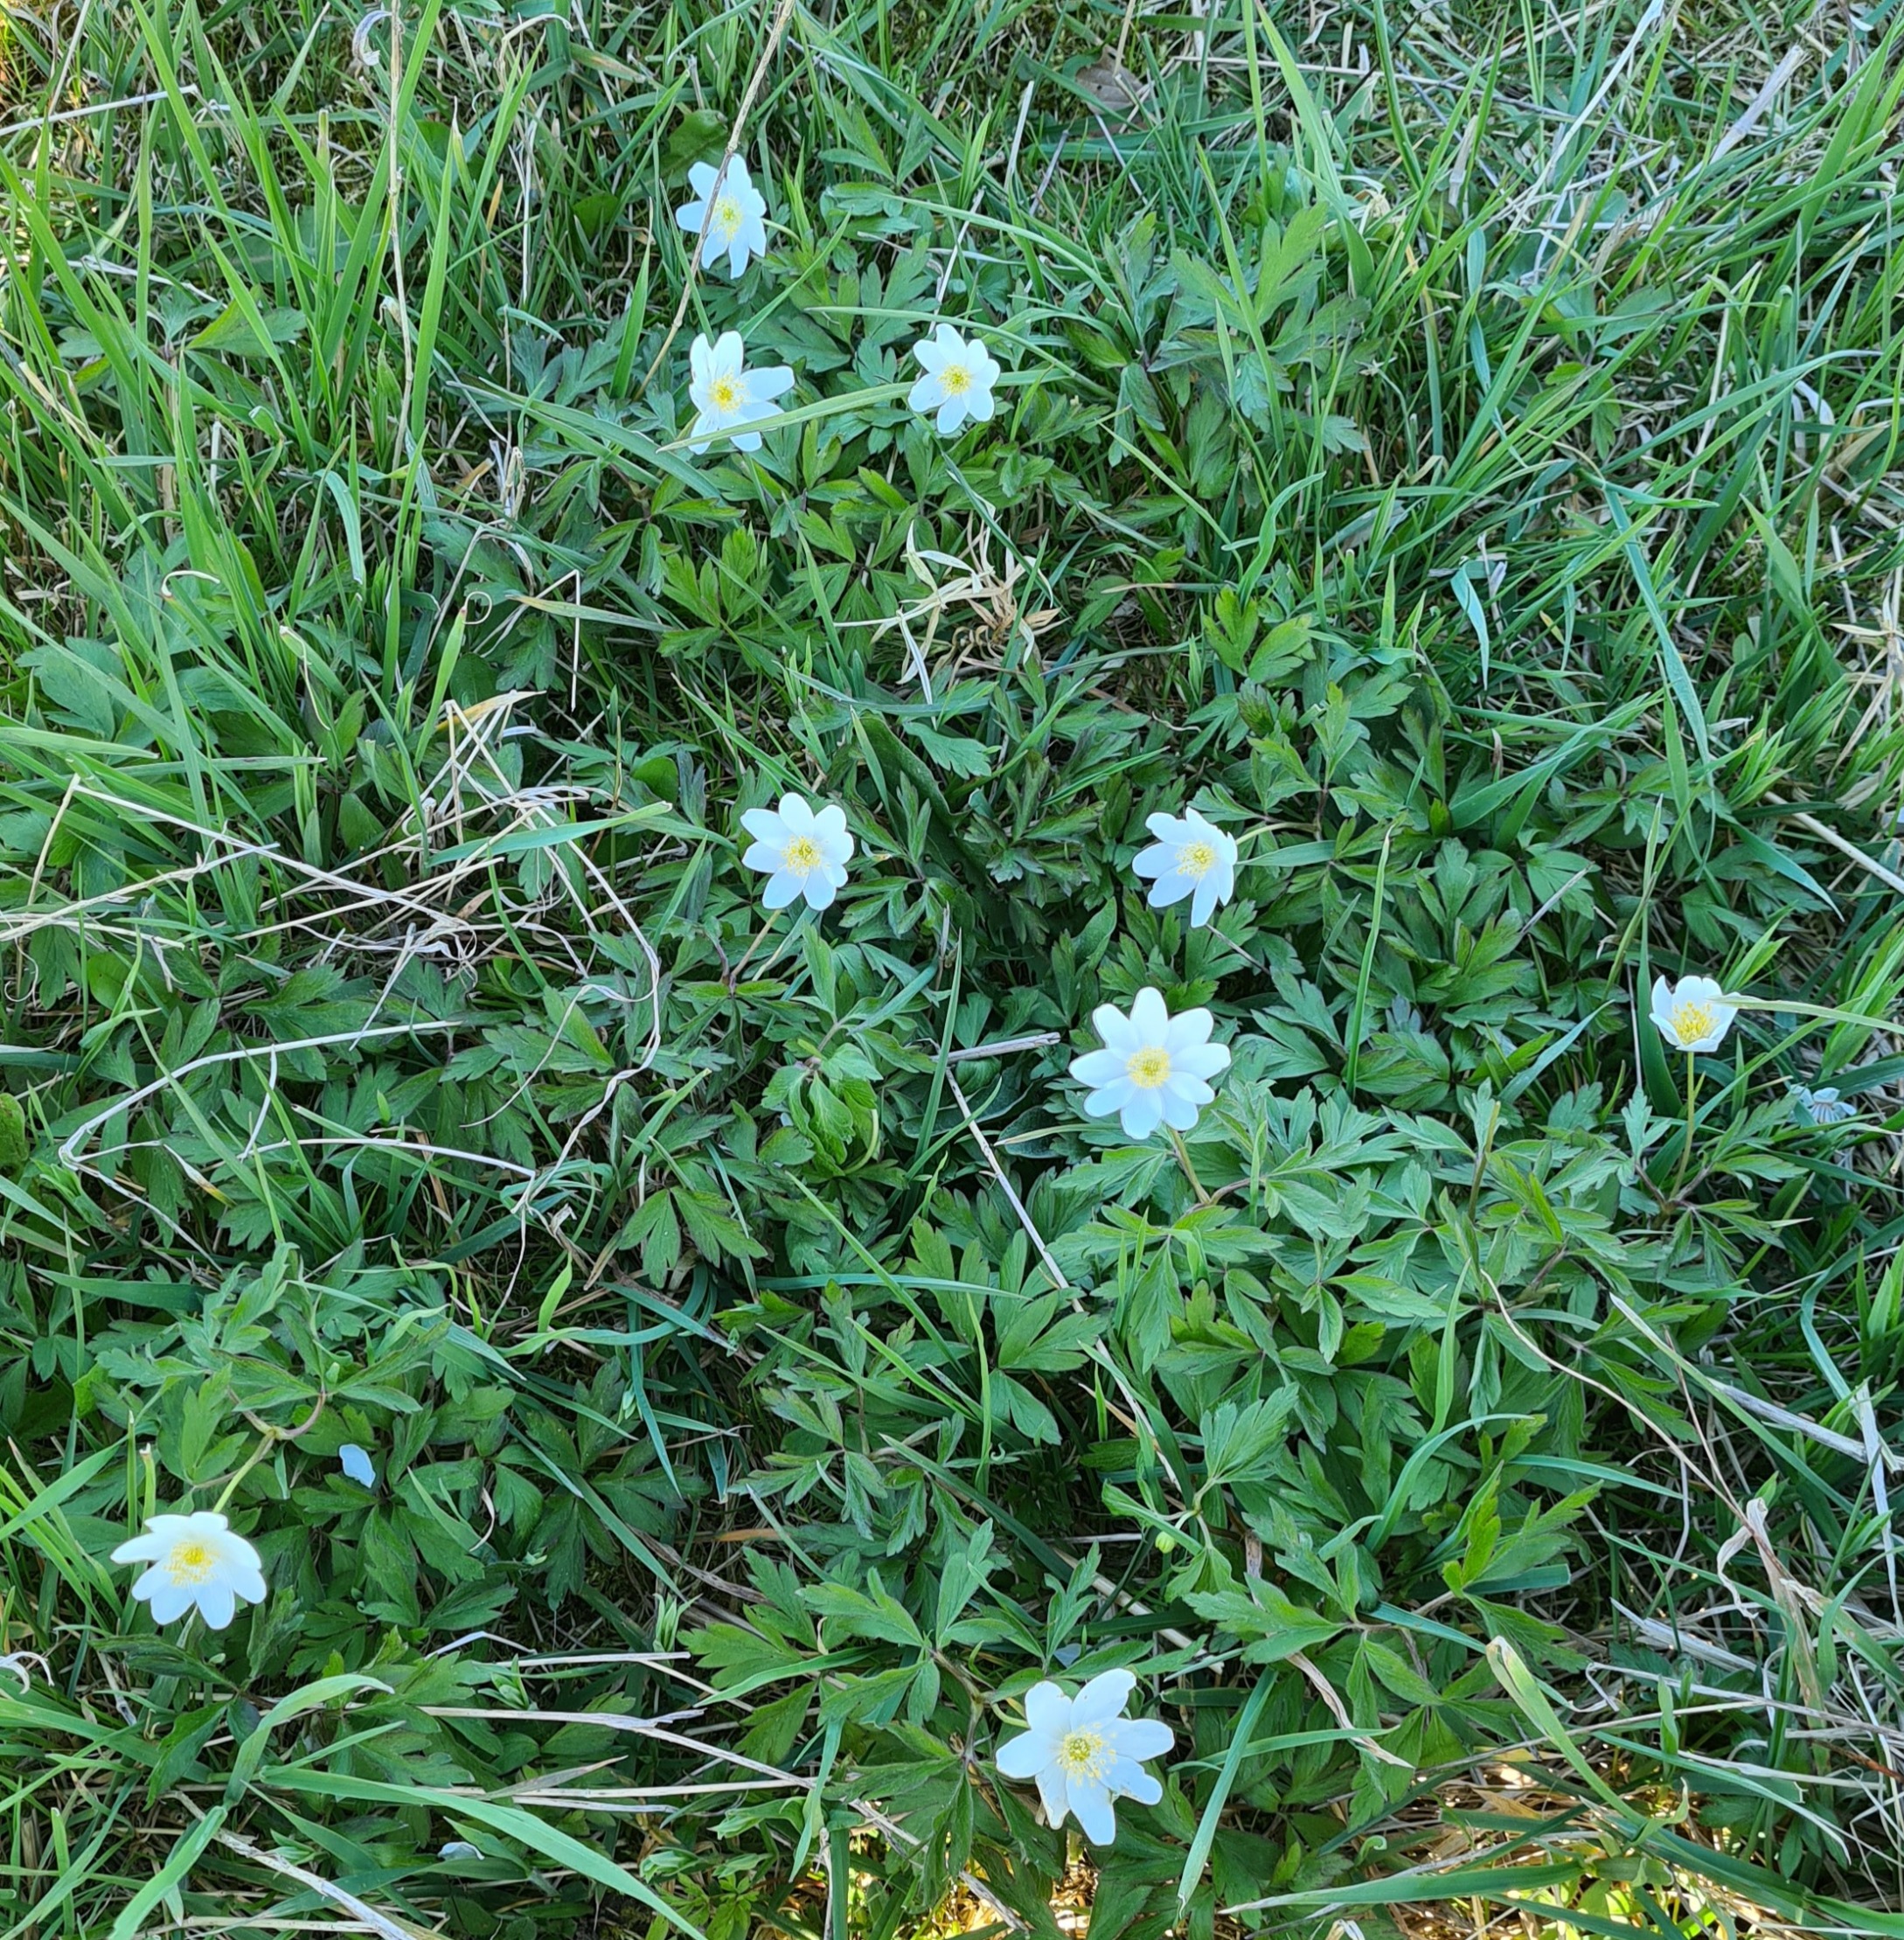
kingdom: Plantae
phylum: Tracheophyta
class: Magnoliopsida
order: Ranunculales
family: Ranunculaceae
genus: Anemone
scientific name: Anemone nemorosa
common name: Hvid anemone
